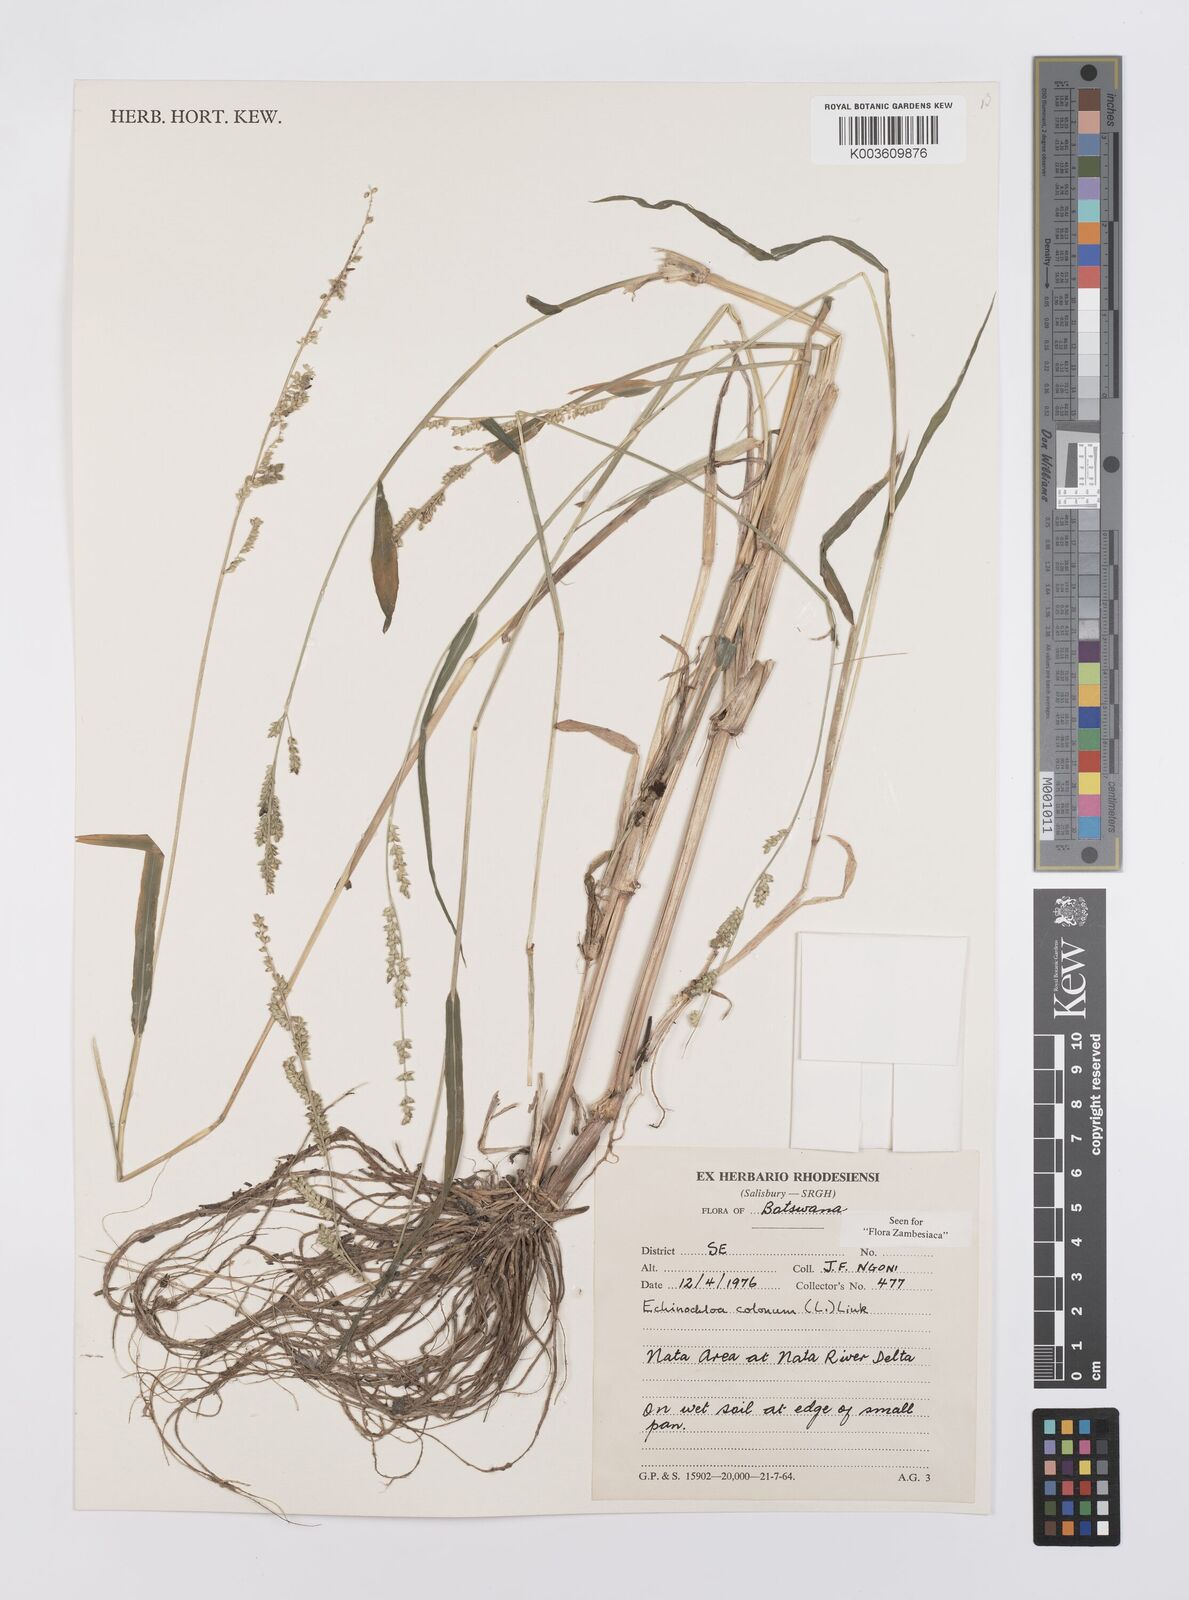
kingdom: Plantae
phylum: Tracheophyta
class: Liliopsida
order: Poales
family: Poaceae
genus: Echinochloa
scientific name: Echinochloa colonum
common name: Jungle rice
